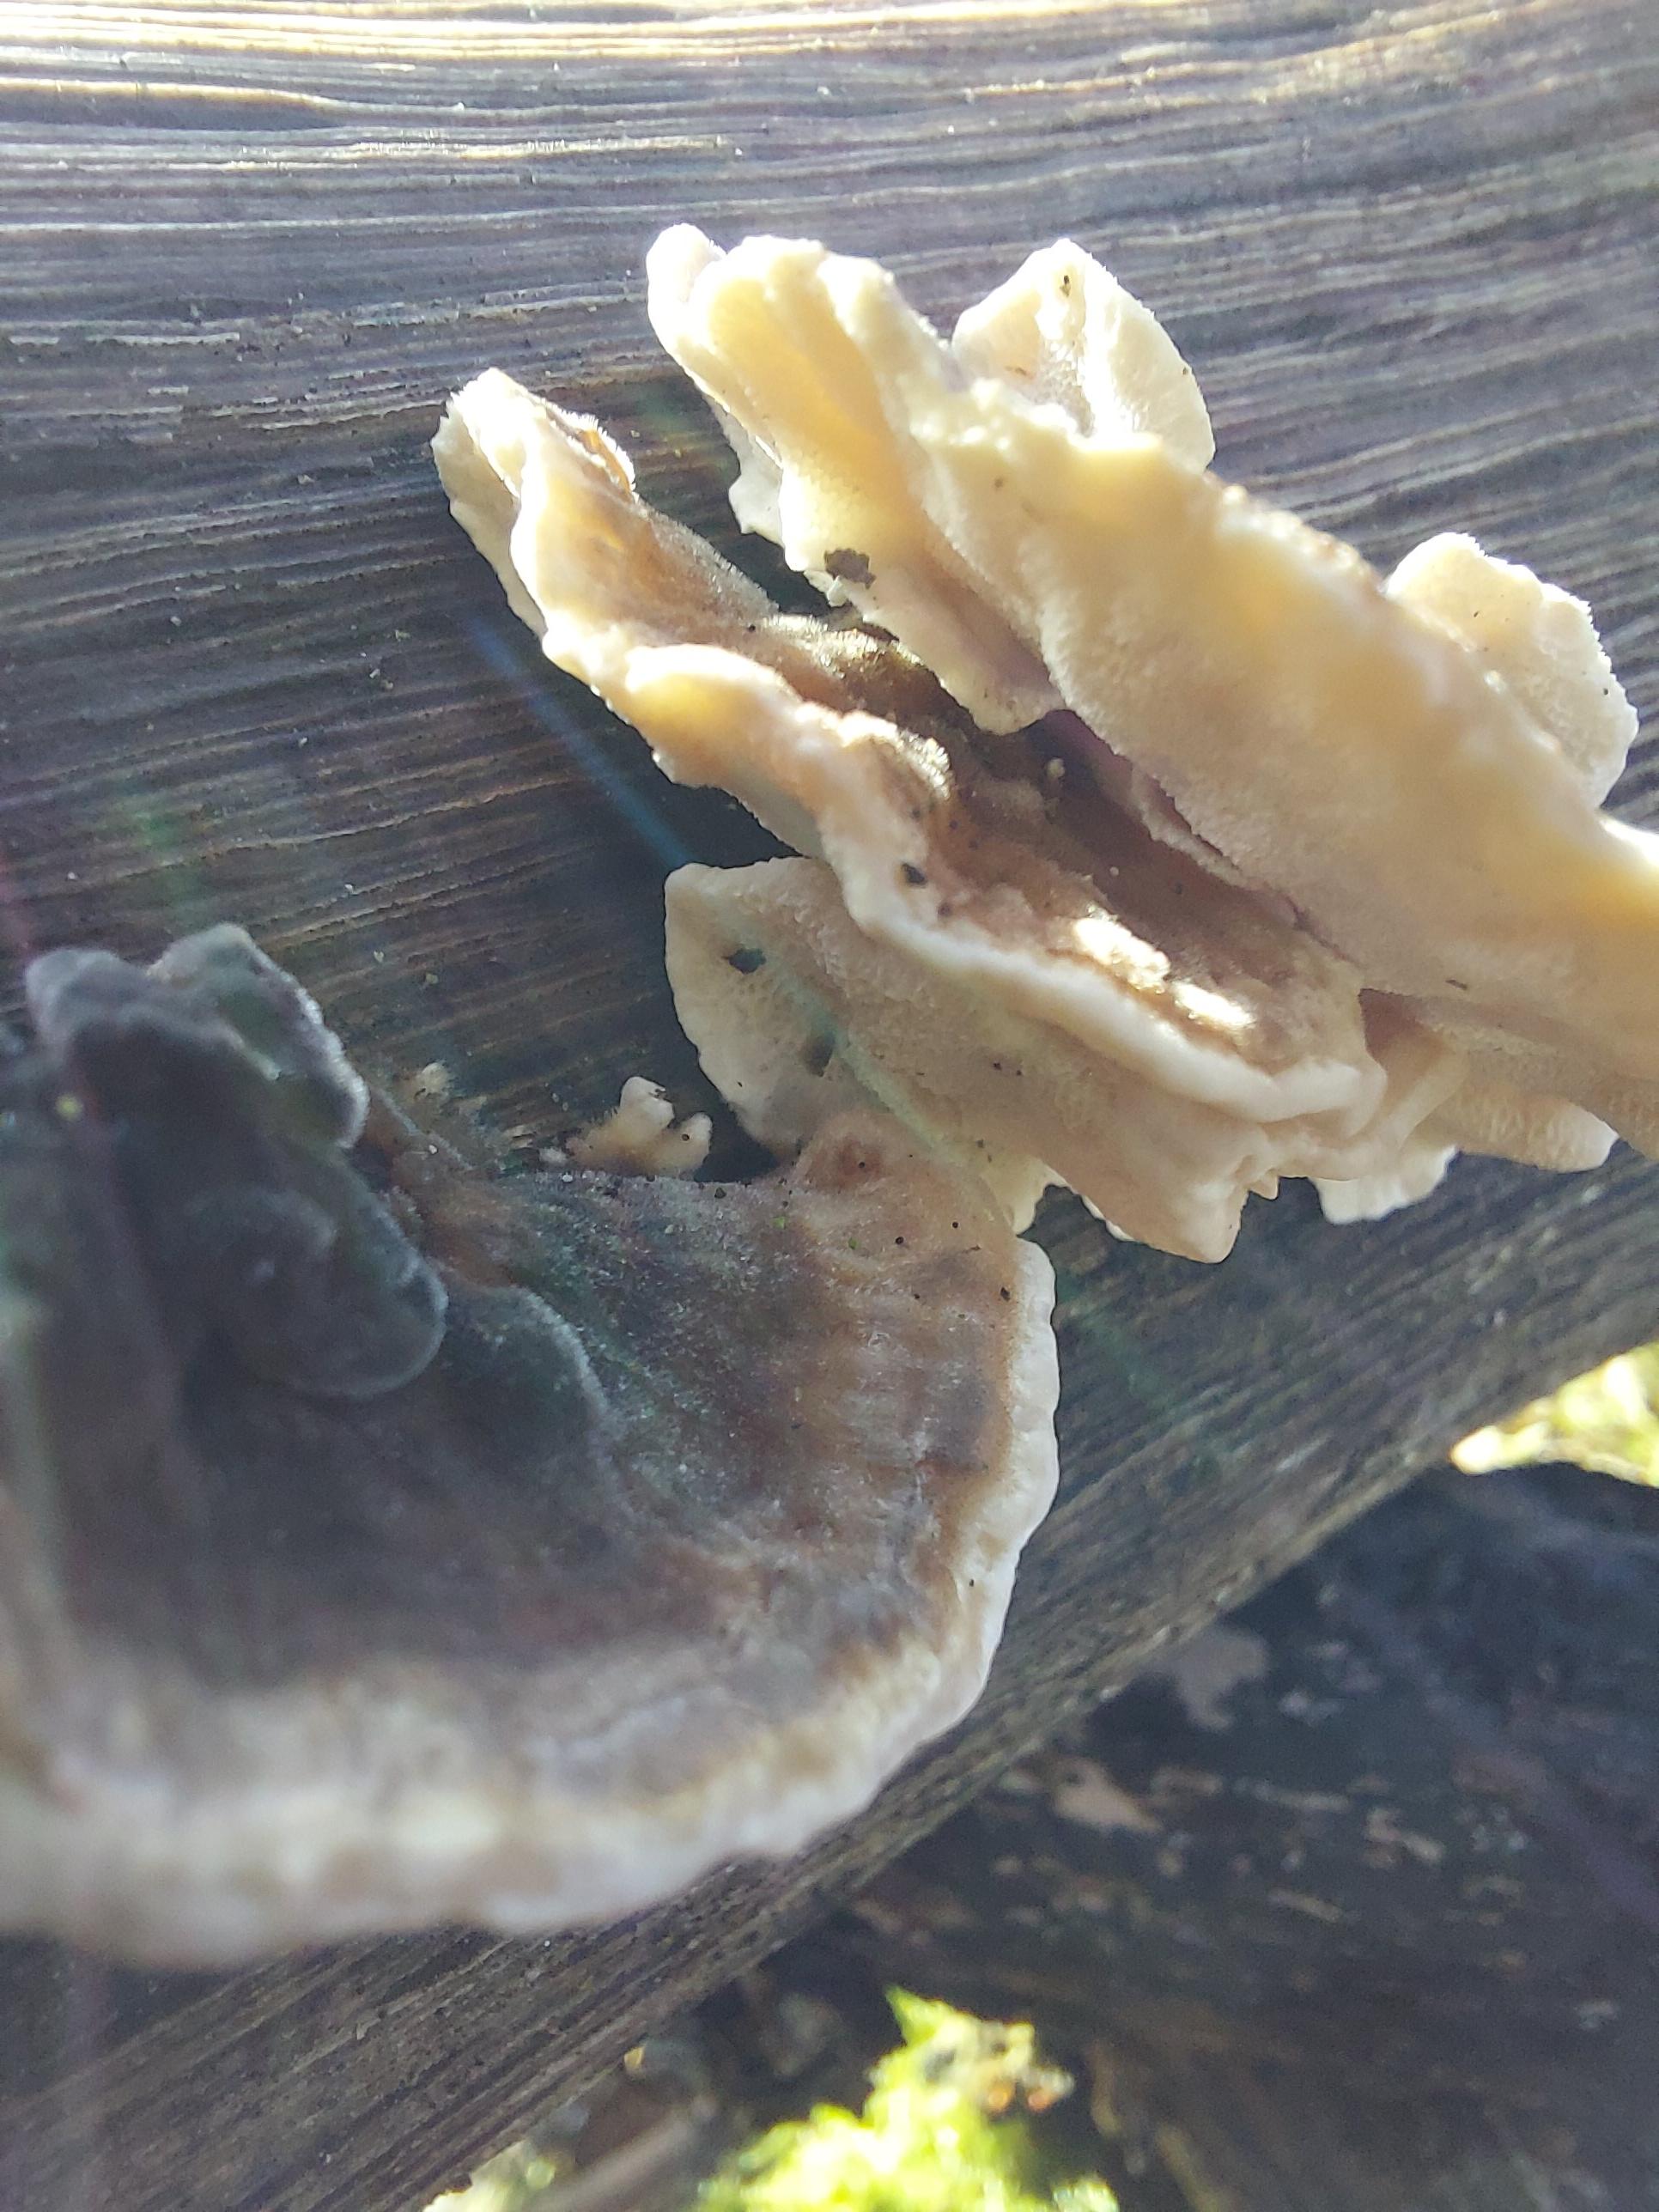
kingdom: Fungi
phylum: Basidiomycota
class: Agaricomycetes
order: Polyporales
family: Polyporaceae
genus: Trametes
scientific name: Trametes
